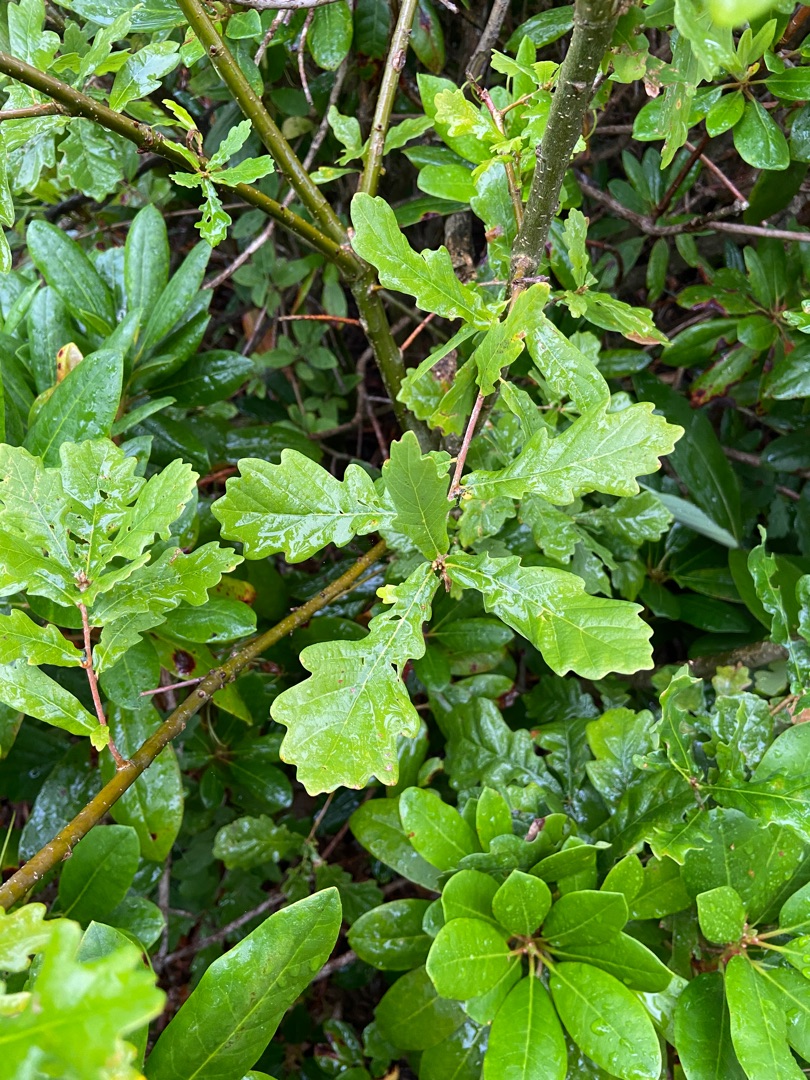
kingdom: Plantae
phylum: Tracheophyta
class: Magnoliopsida
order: Fagales
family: Fagaceae
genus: Quercus
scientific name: Quercus robur
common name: Stilk-eg/almindelig eg
